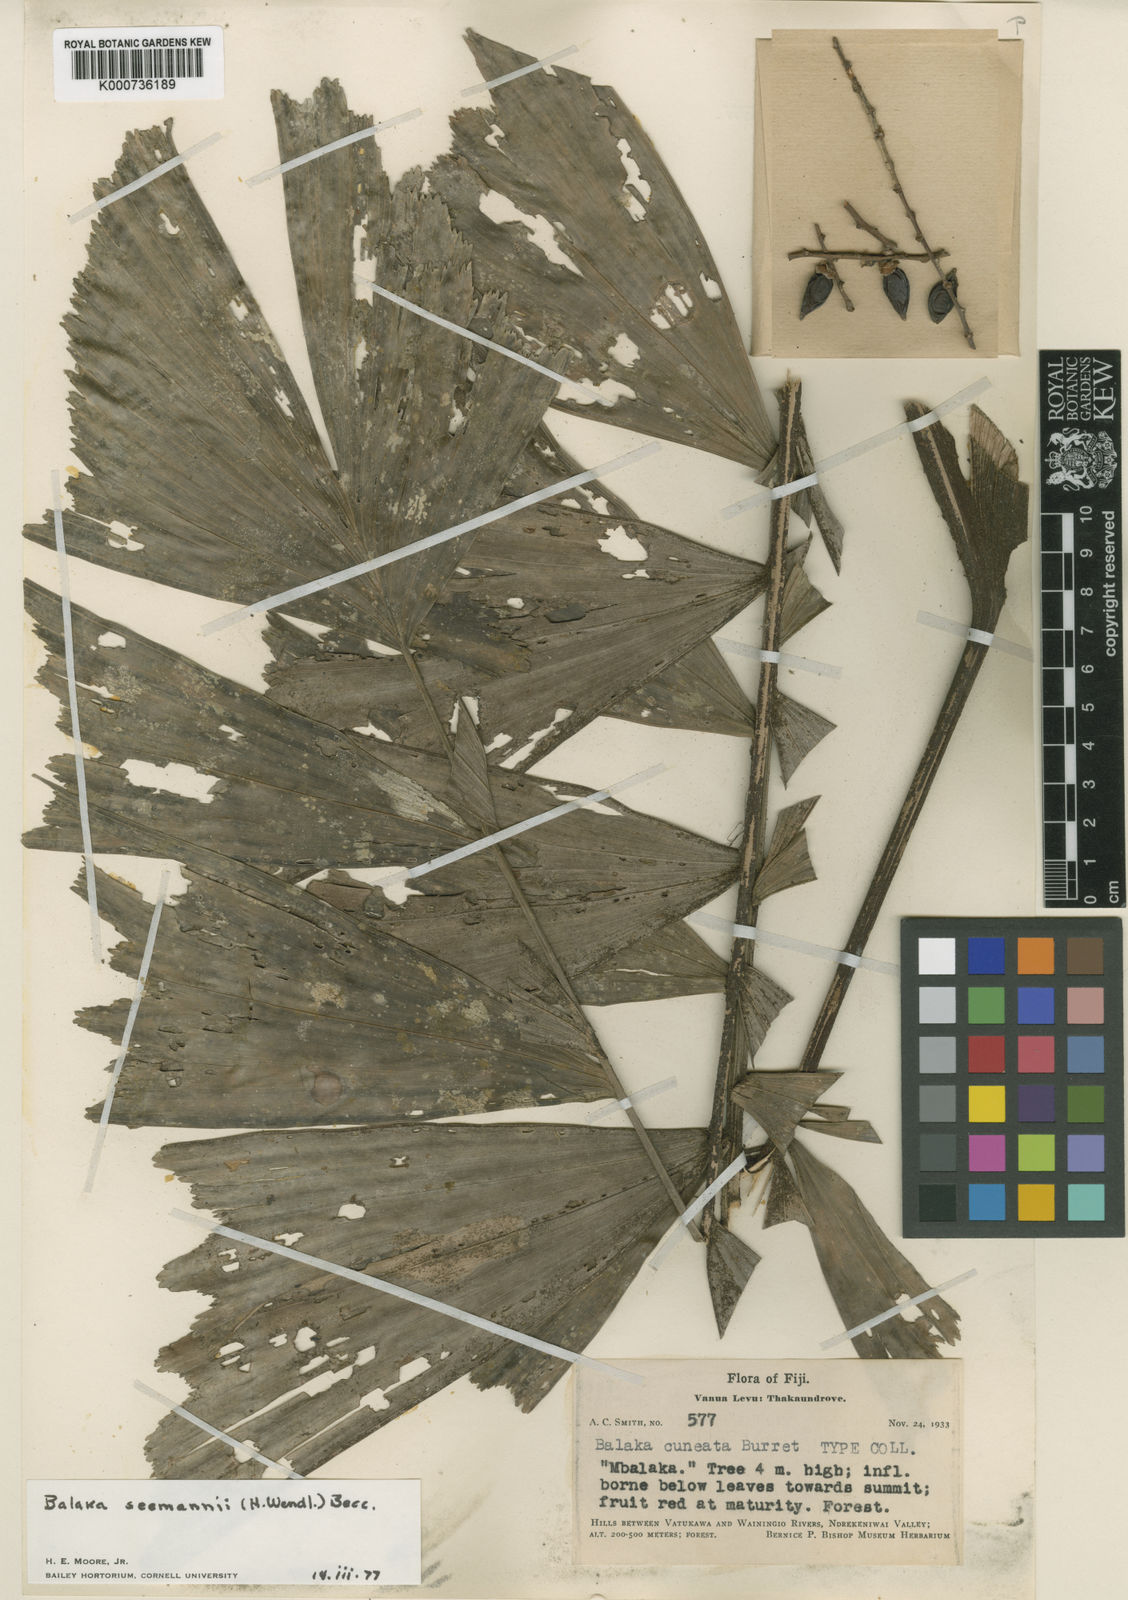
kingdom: Plantae
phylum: Tracheophyta
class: Magnoliopsida
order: Celastrales
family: Celastraceae
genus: Salacia
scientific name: Salacia chlorantha
